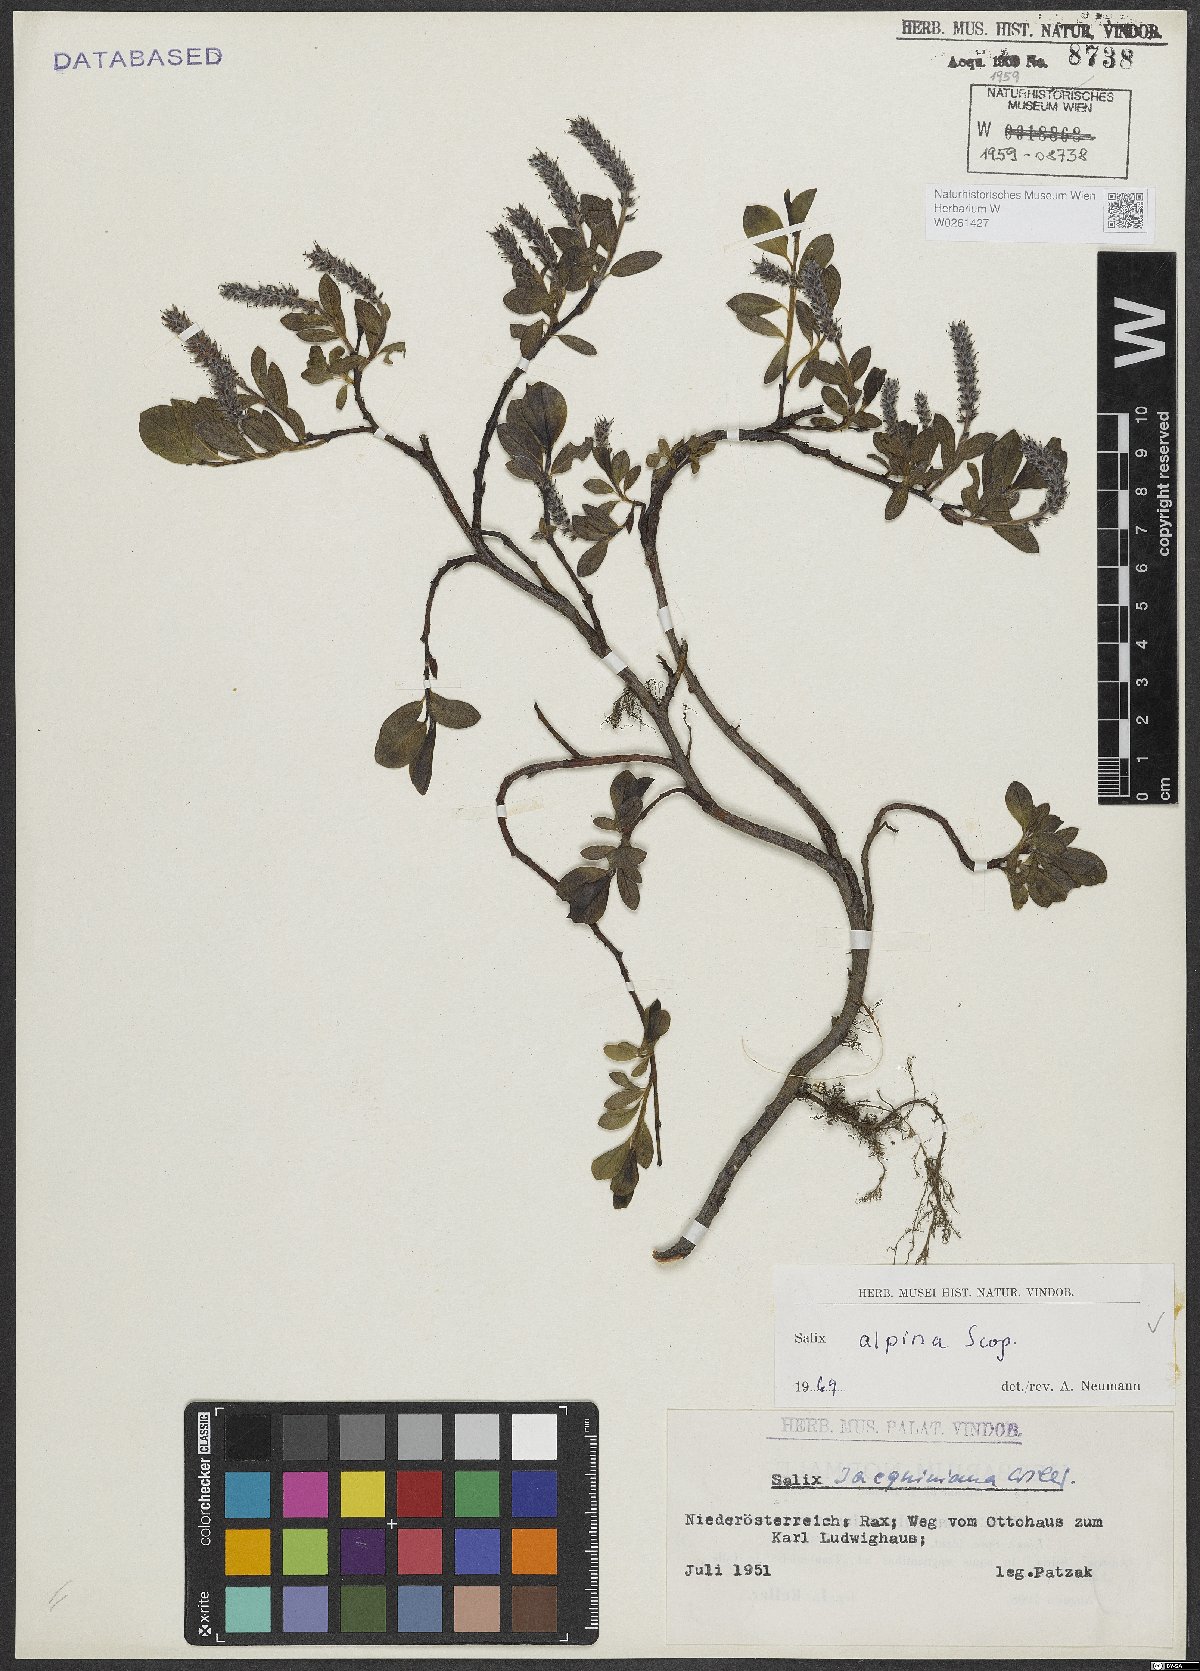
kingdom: Plantae
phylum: Tracheophyta
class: Magnoliopsida
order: Malpighiales
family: Salicaceae
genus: Salix
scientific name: Salix alpina
